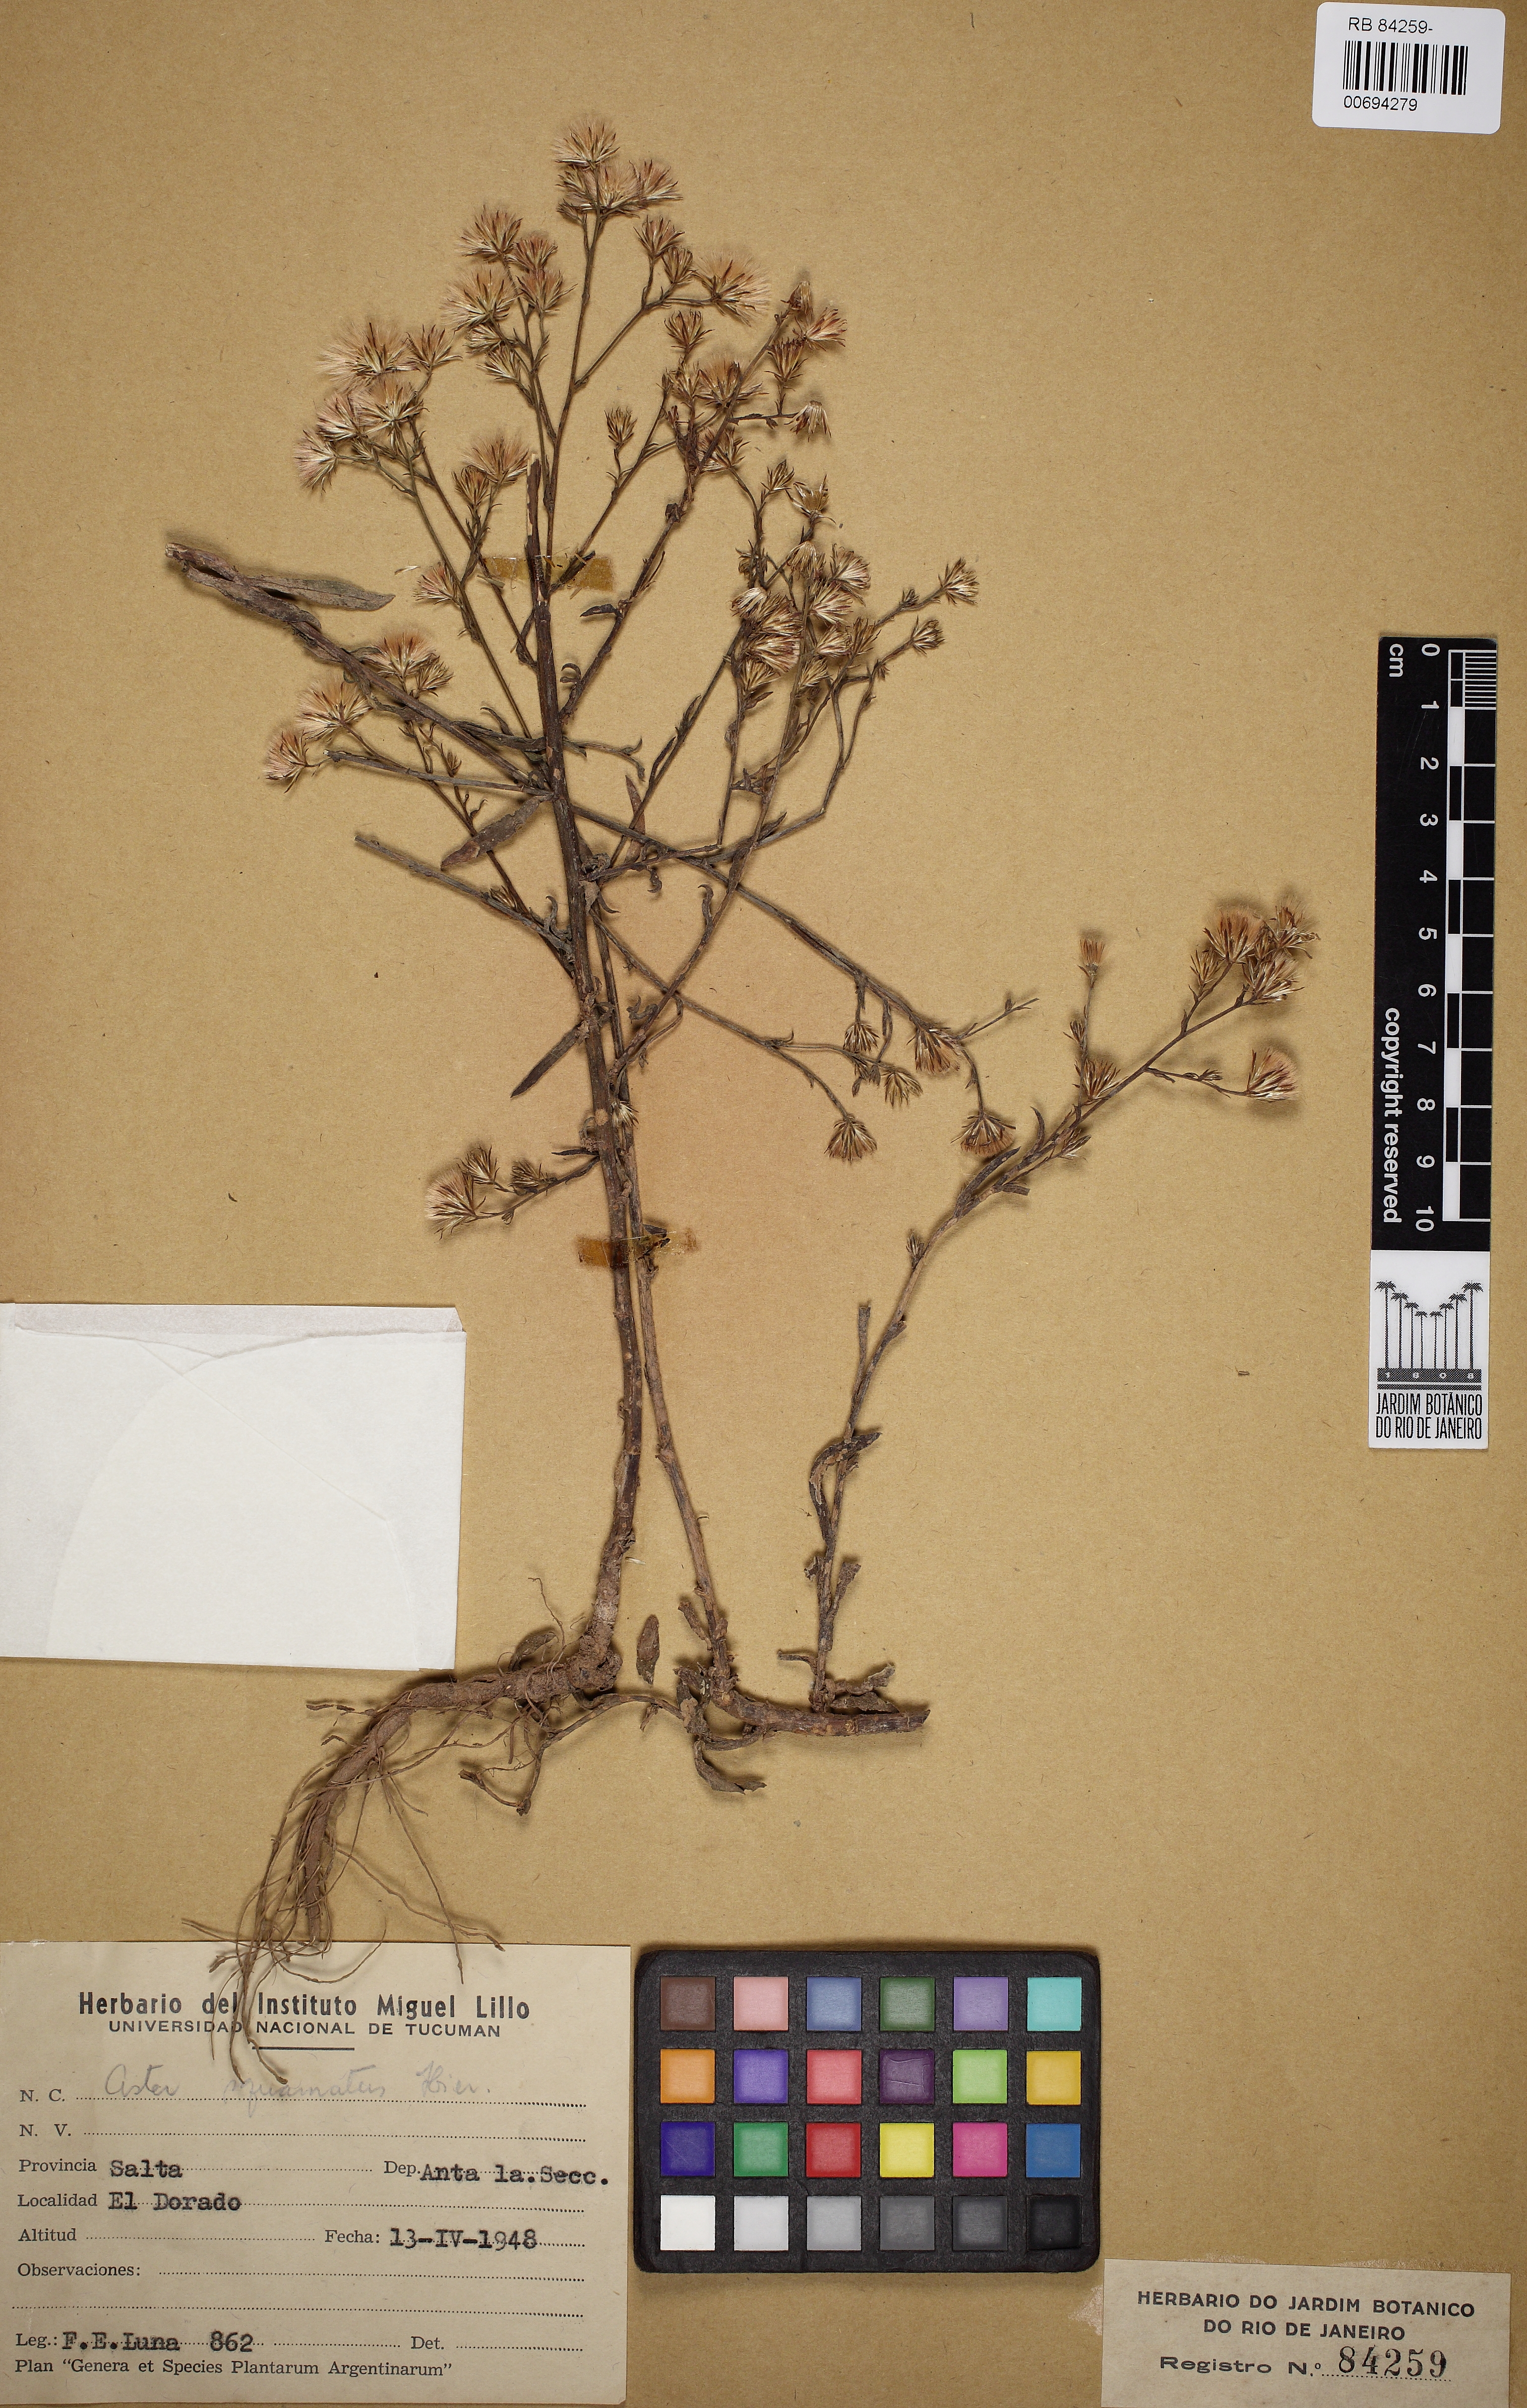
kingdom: Plantae
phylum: Tracheophyta
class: Magnoliopsida
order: Asterales
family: Asteraceae
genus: Symphyotrichum
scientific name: Symphyotrichum squamatum
